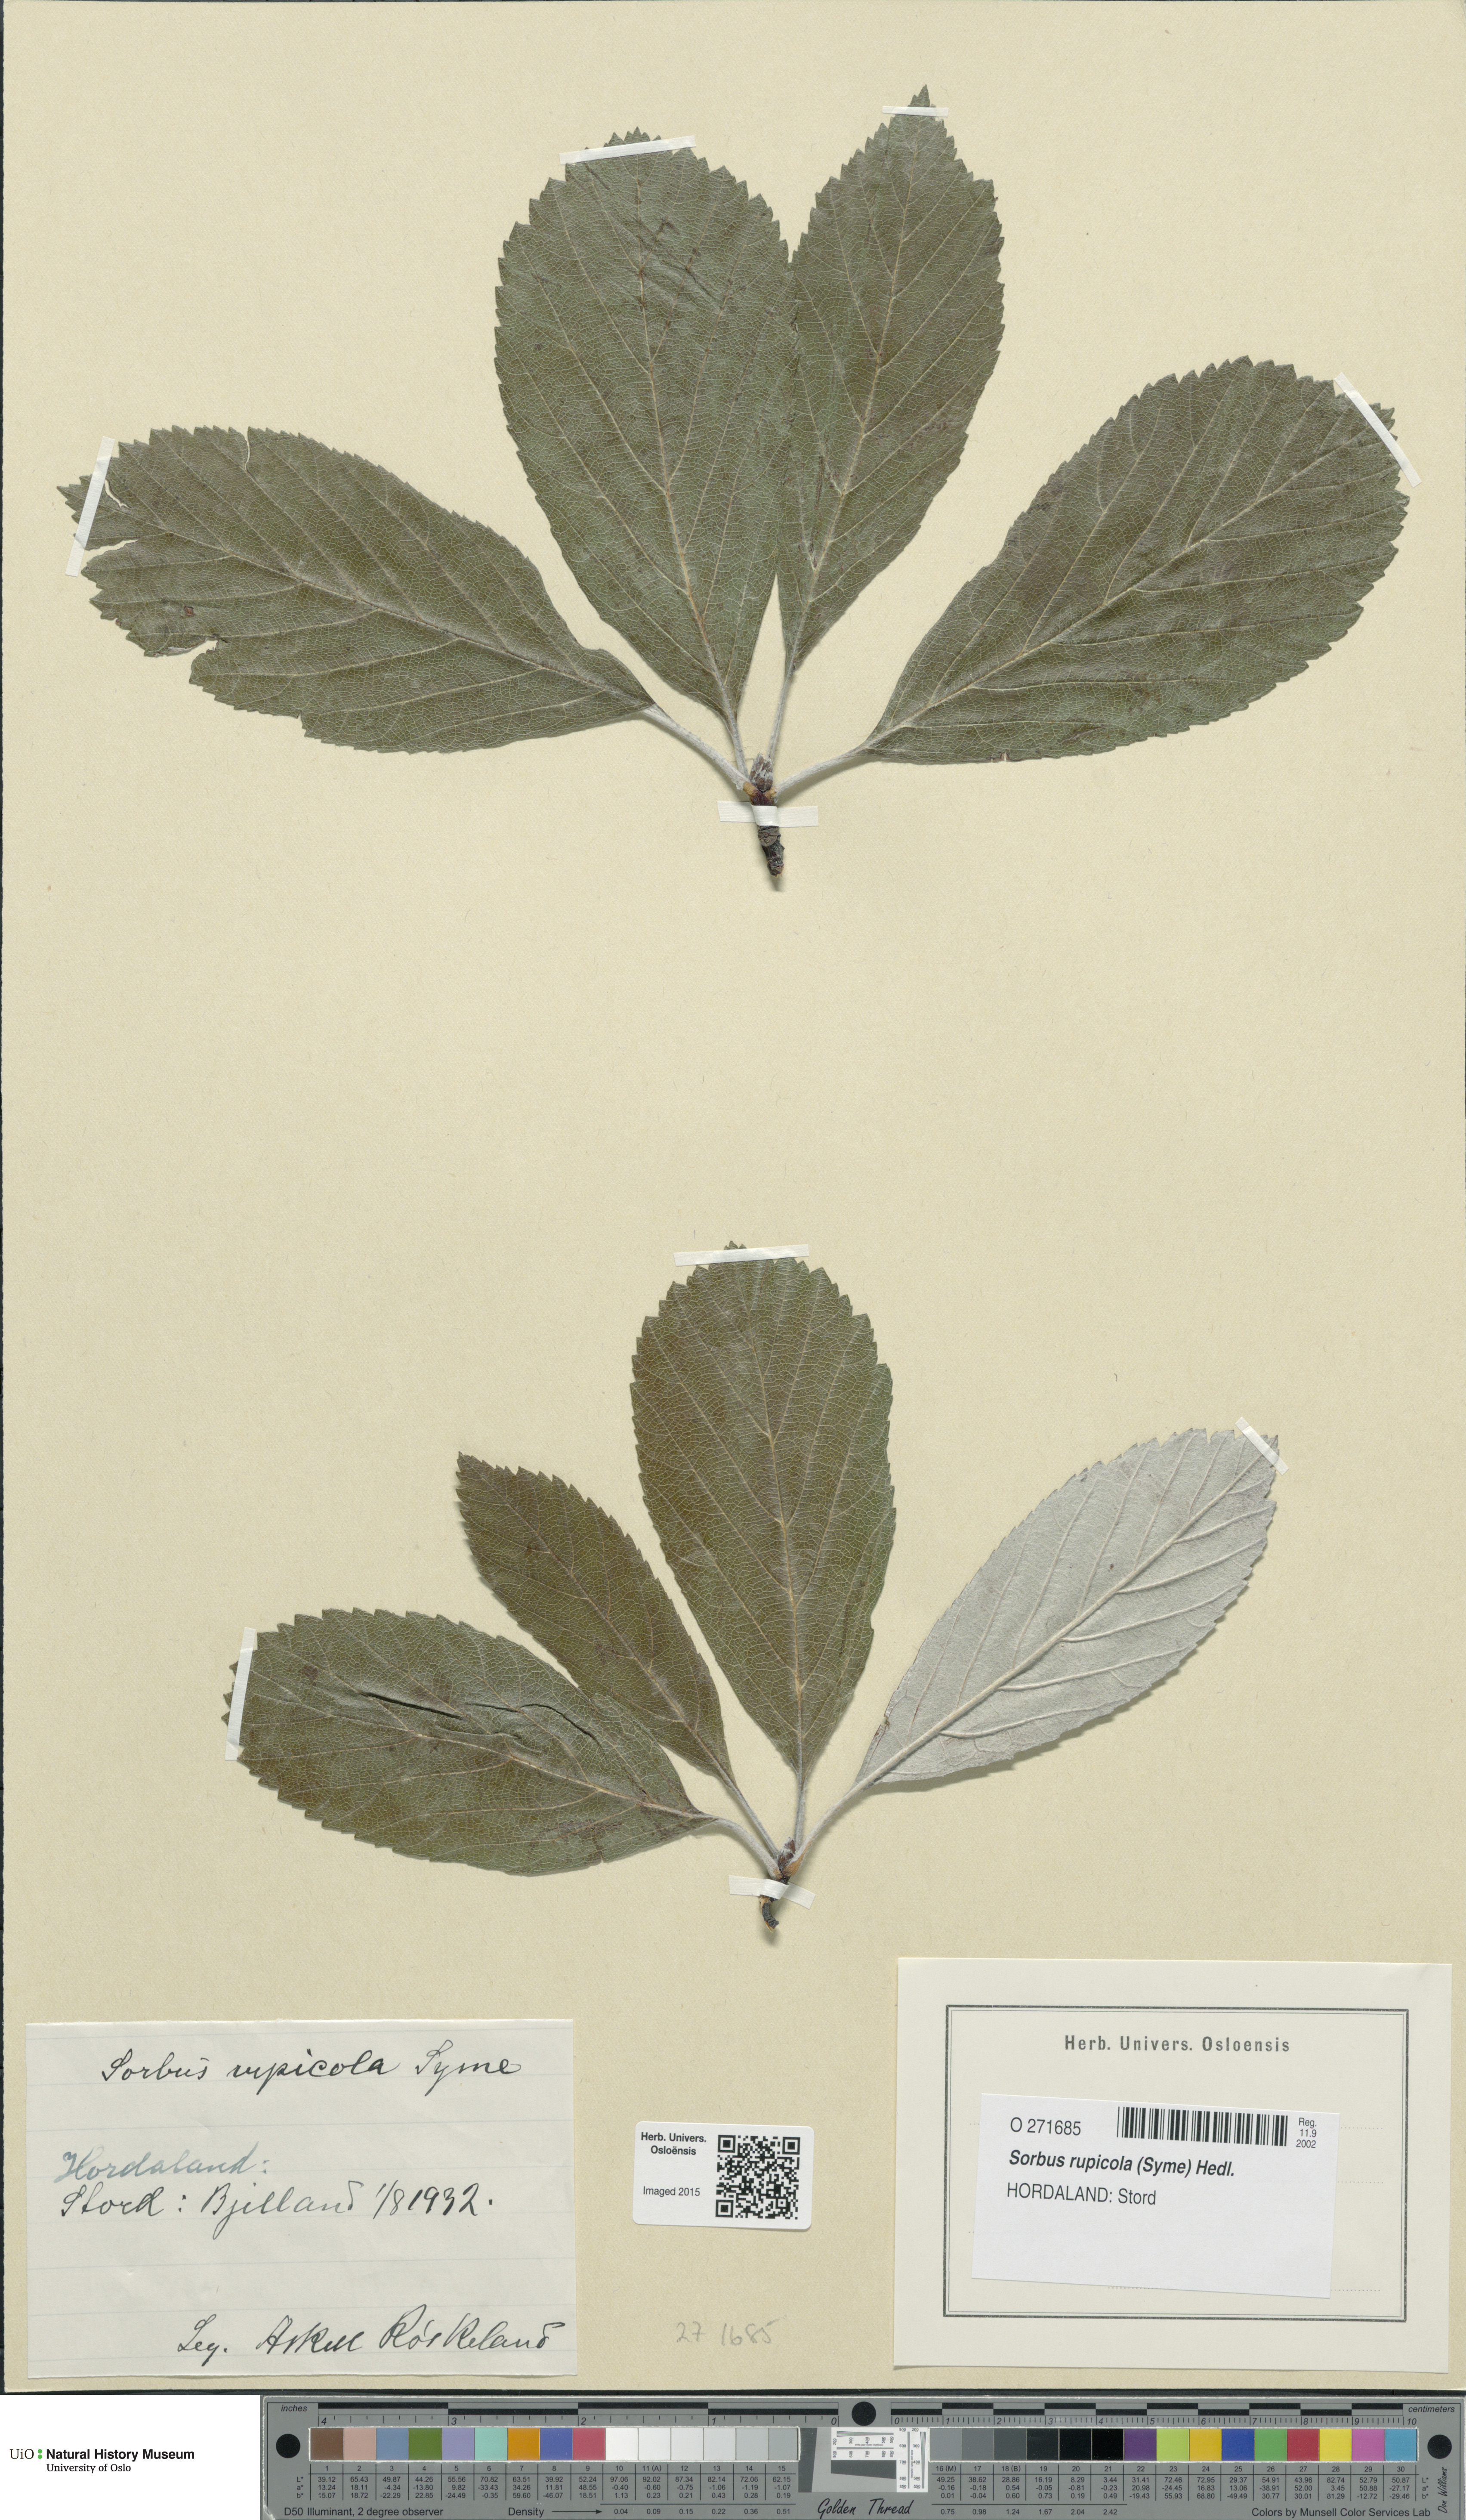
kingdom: Plantae
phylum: Tracheophyta
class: Magnoliopsida
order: Rosales
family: Rosaceae
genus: Aria
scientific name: Aria rupicola
